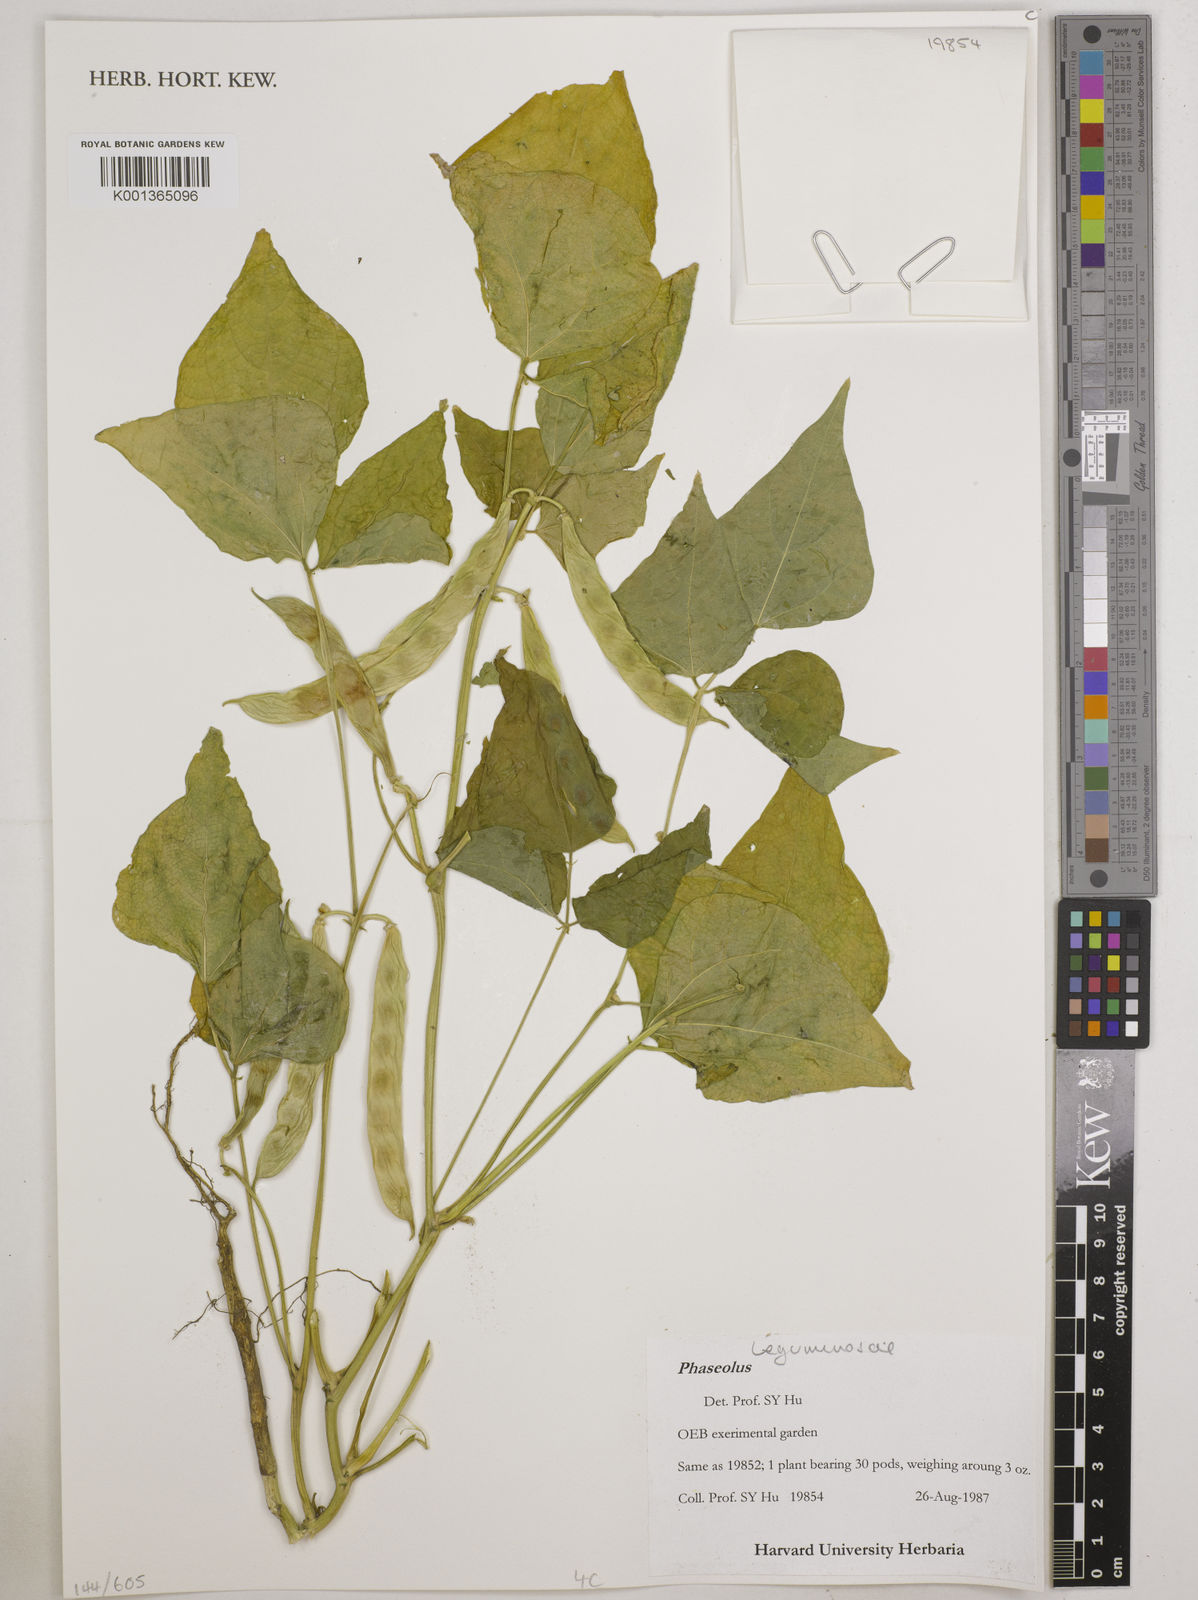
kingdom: Plantae
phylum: Tracheophyta
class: Magnoliopsida
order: Fabales
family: Fabaceae
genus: Phaseolus
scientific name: Phaseolus
